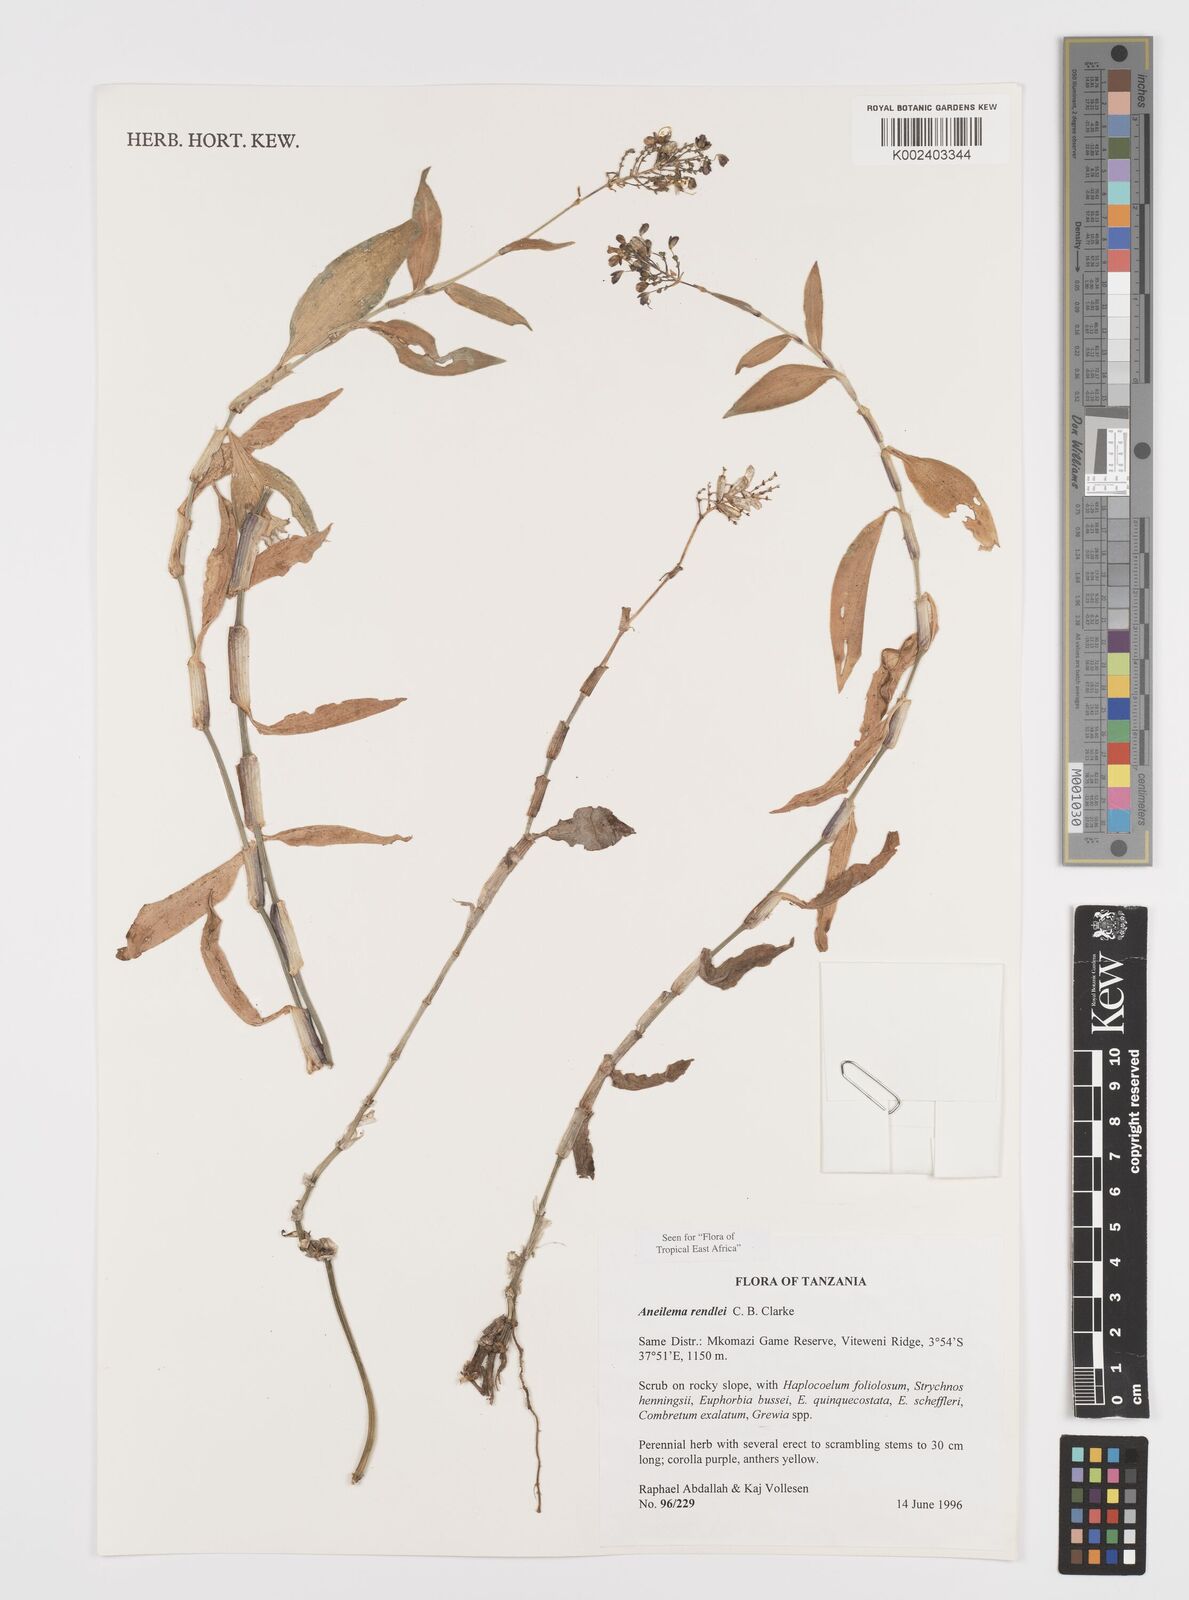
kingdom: Plantae
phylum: Tracheophyta
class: Liliopsida
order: Commelinales
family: Commelinaceae
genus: Aneilema
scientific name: Aneilema rendlei
